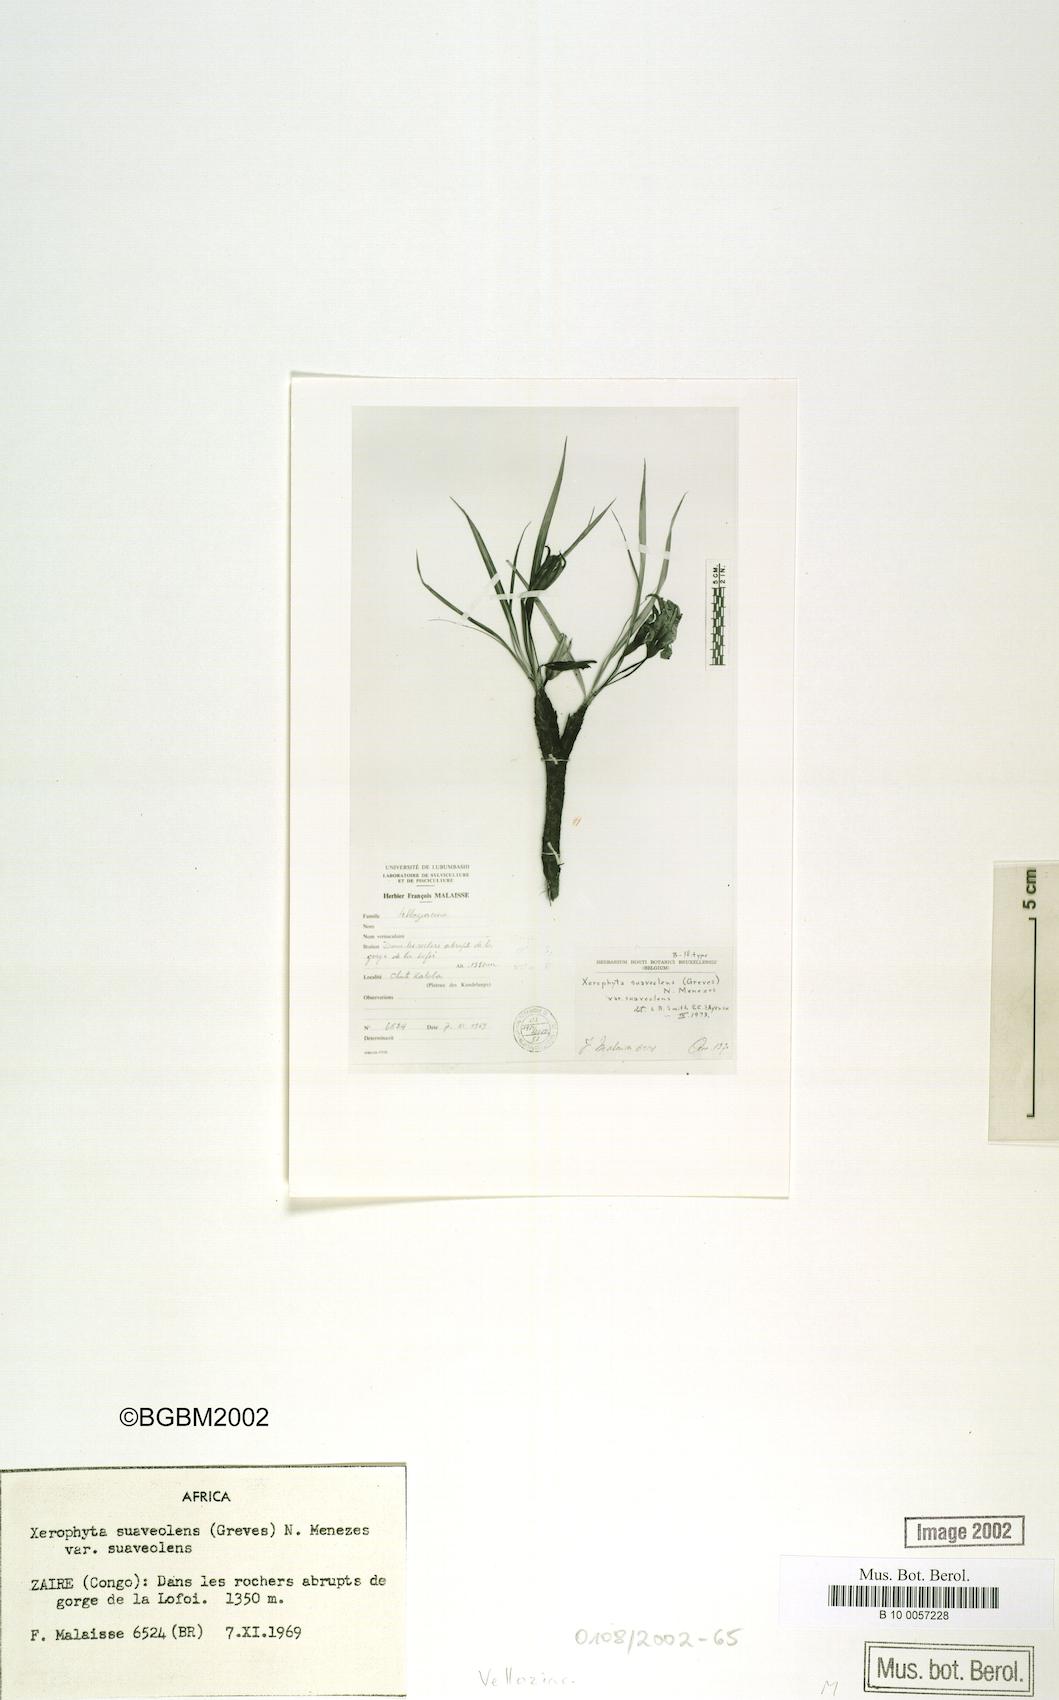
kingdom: Plantae
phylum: Tracheophyta
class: Liliopsida
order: Pandanales
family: Velloziaceae
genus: Xerophyta
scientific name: Xerophyta suaveolens
